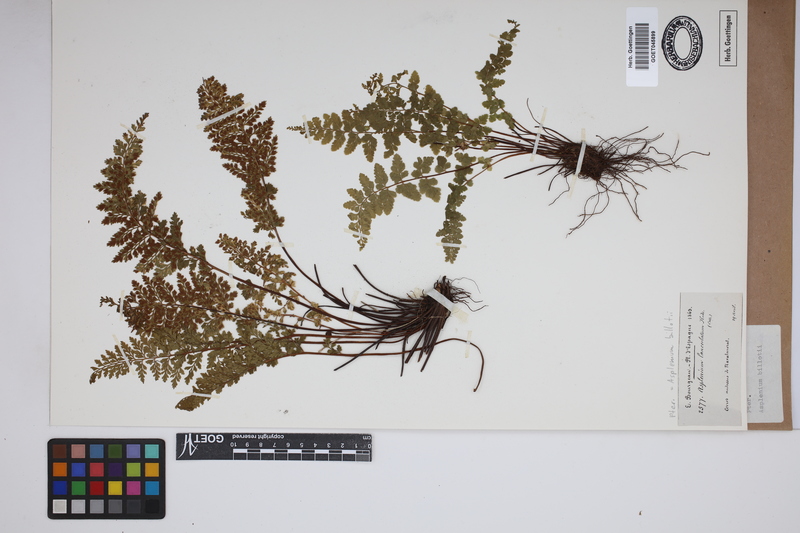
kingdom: Plantae
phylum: Tracheophyta
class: Polypodiopsida
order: Polypodiales
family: Aspleniaceae
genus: Asplenium
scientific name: Asplenium obovatum
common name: Lanceolate spleenwort
